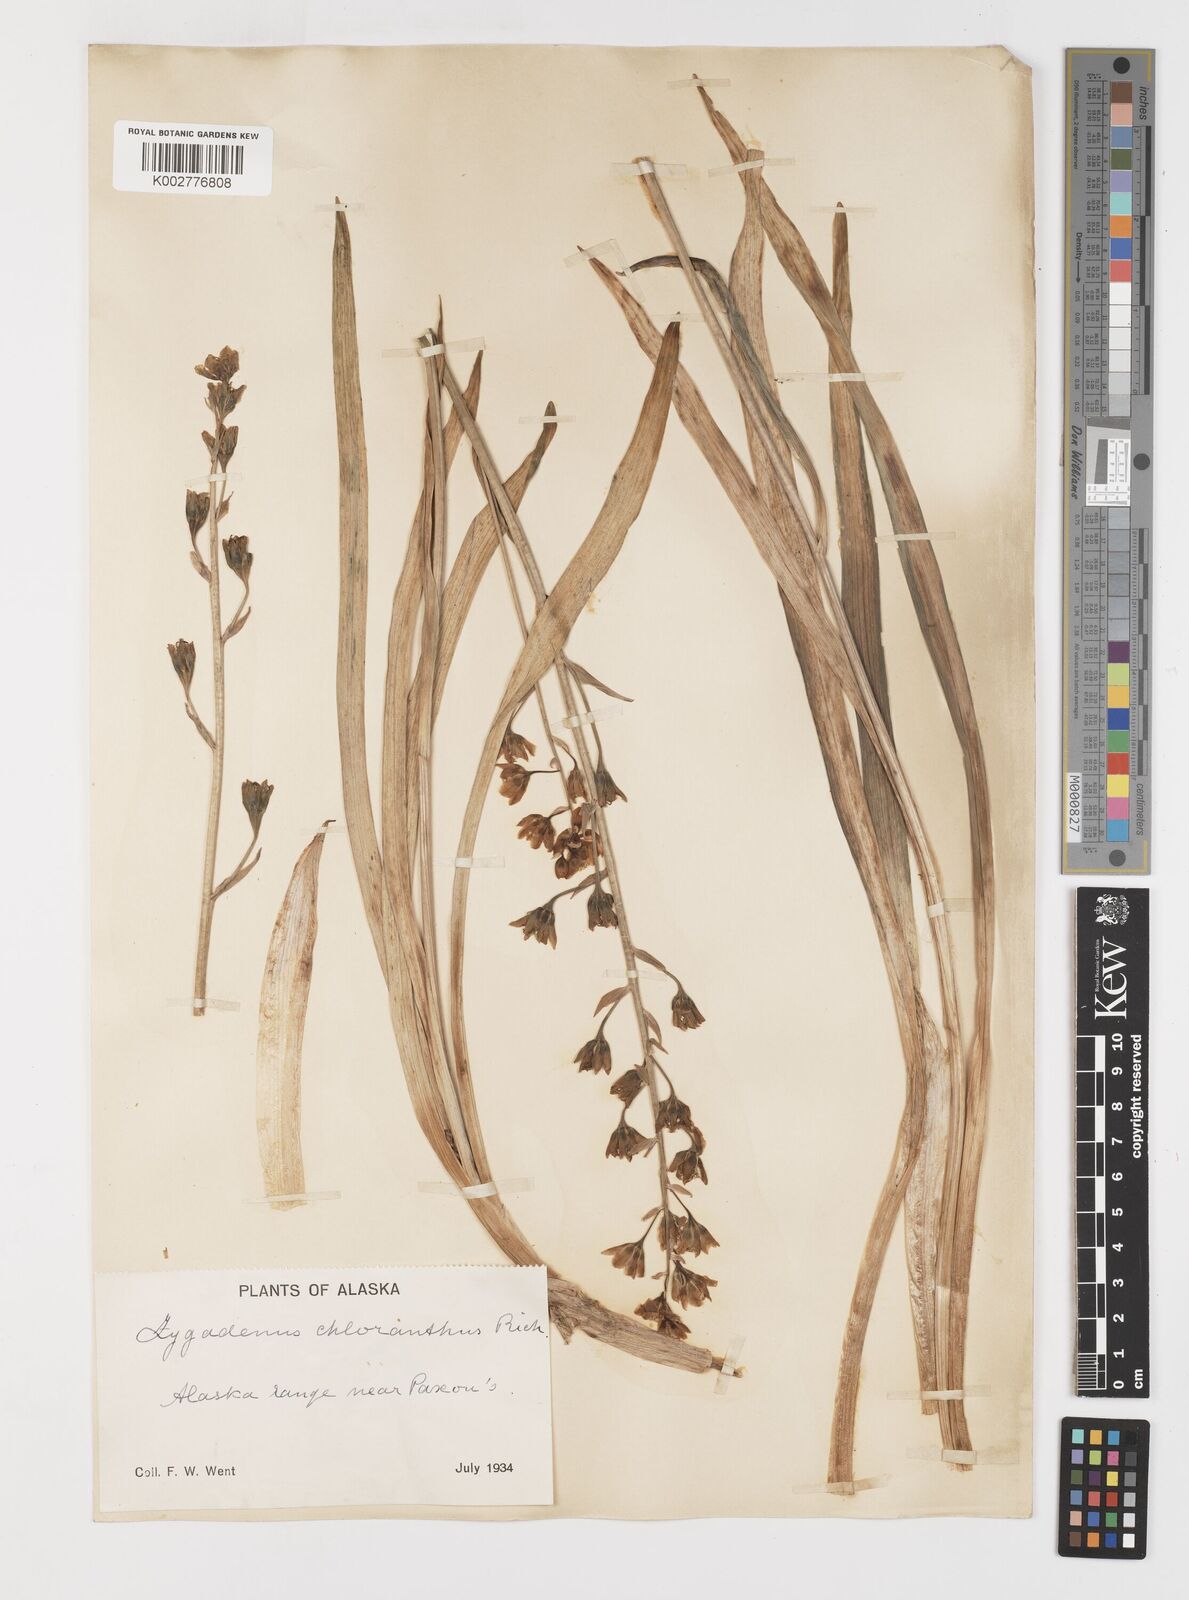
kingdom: Plantae
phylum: Tracheophyta
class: Liliopsida
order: Liliales
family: Melanthiaceae
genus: Anticlea
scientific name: Anticlea elegans
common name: Mountain death camas
